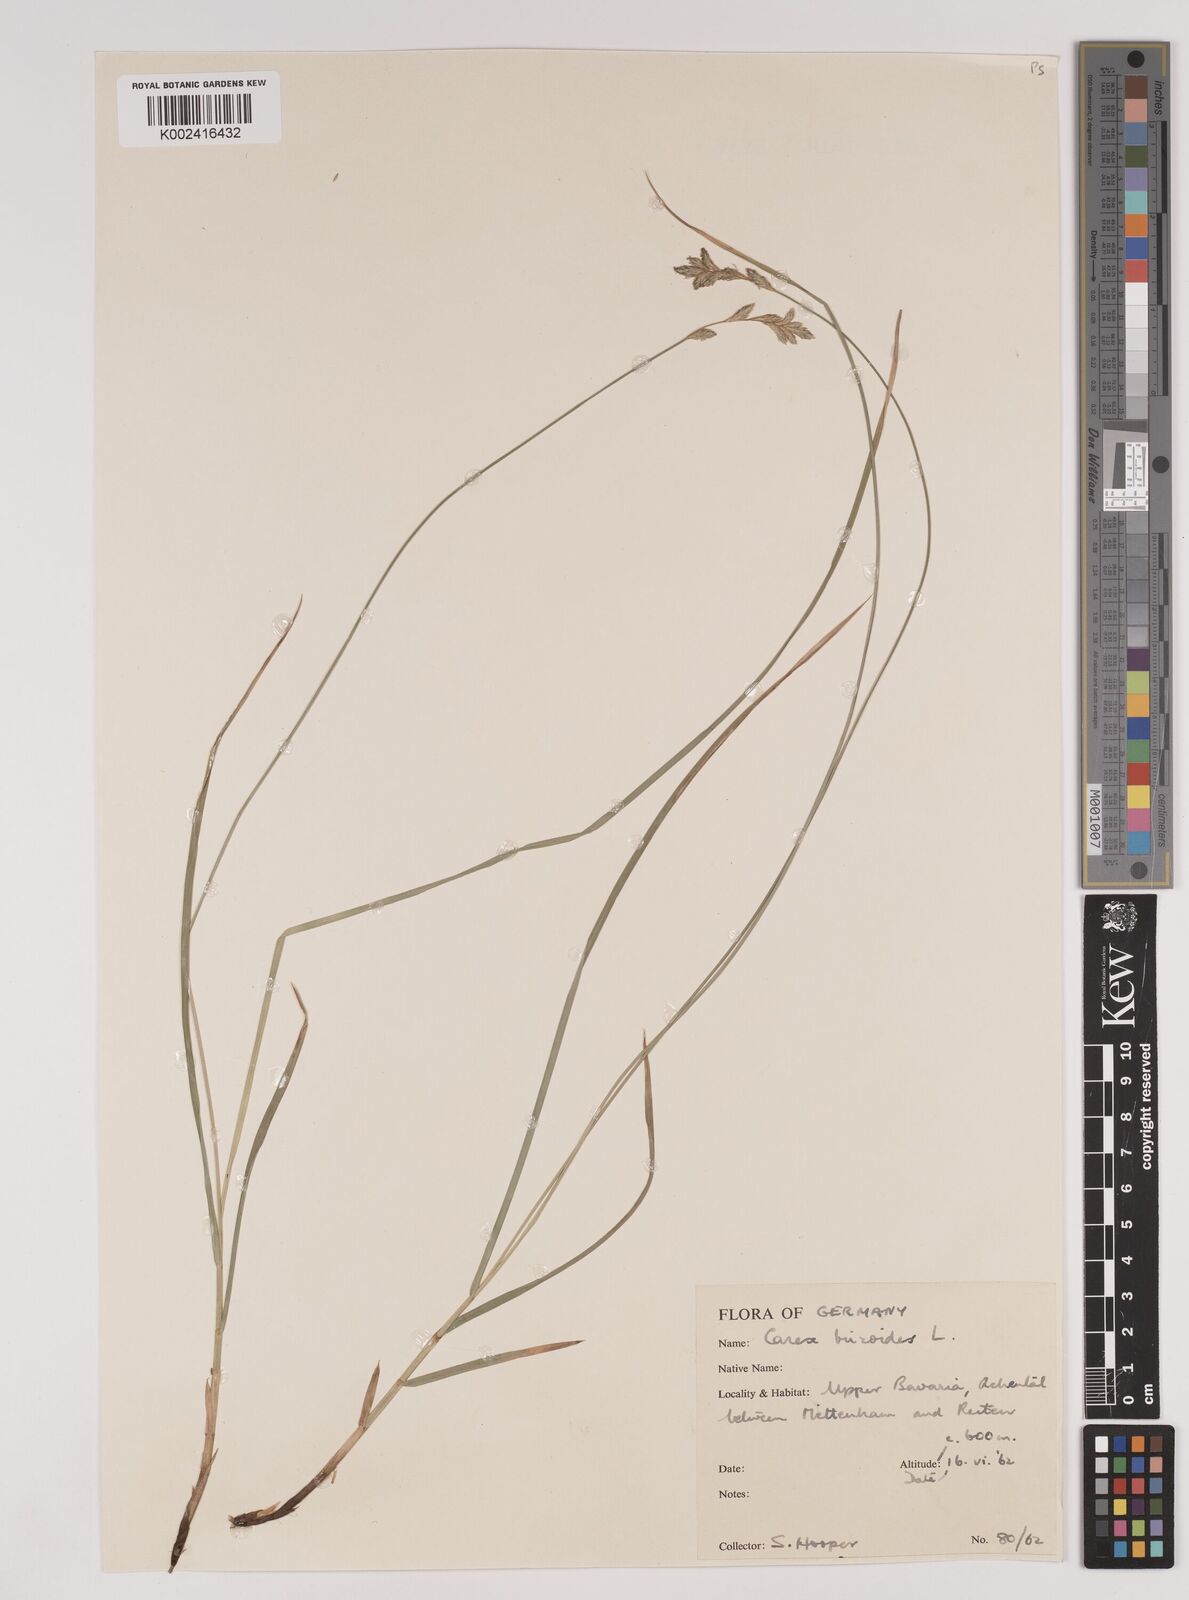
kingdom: Plantae
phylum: Tracheophyta
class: Liliopsida
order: Poales
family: Cyperaceae
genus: Carex
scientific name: Carex brizoides
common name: Quaking-grass sedge
